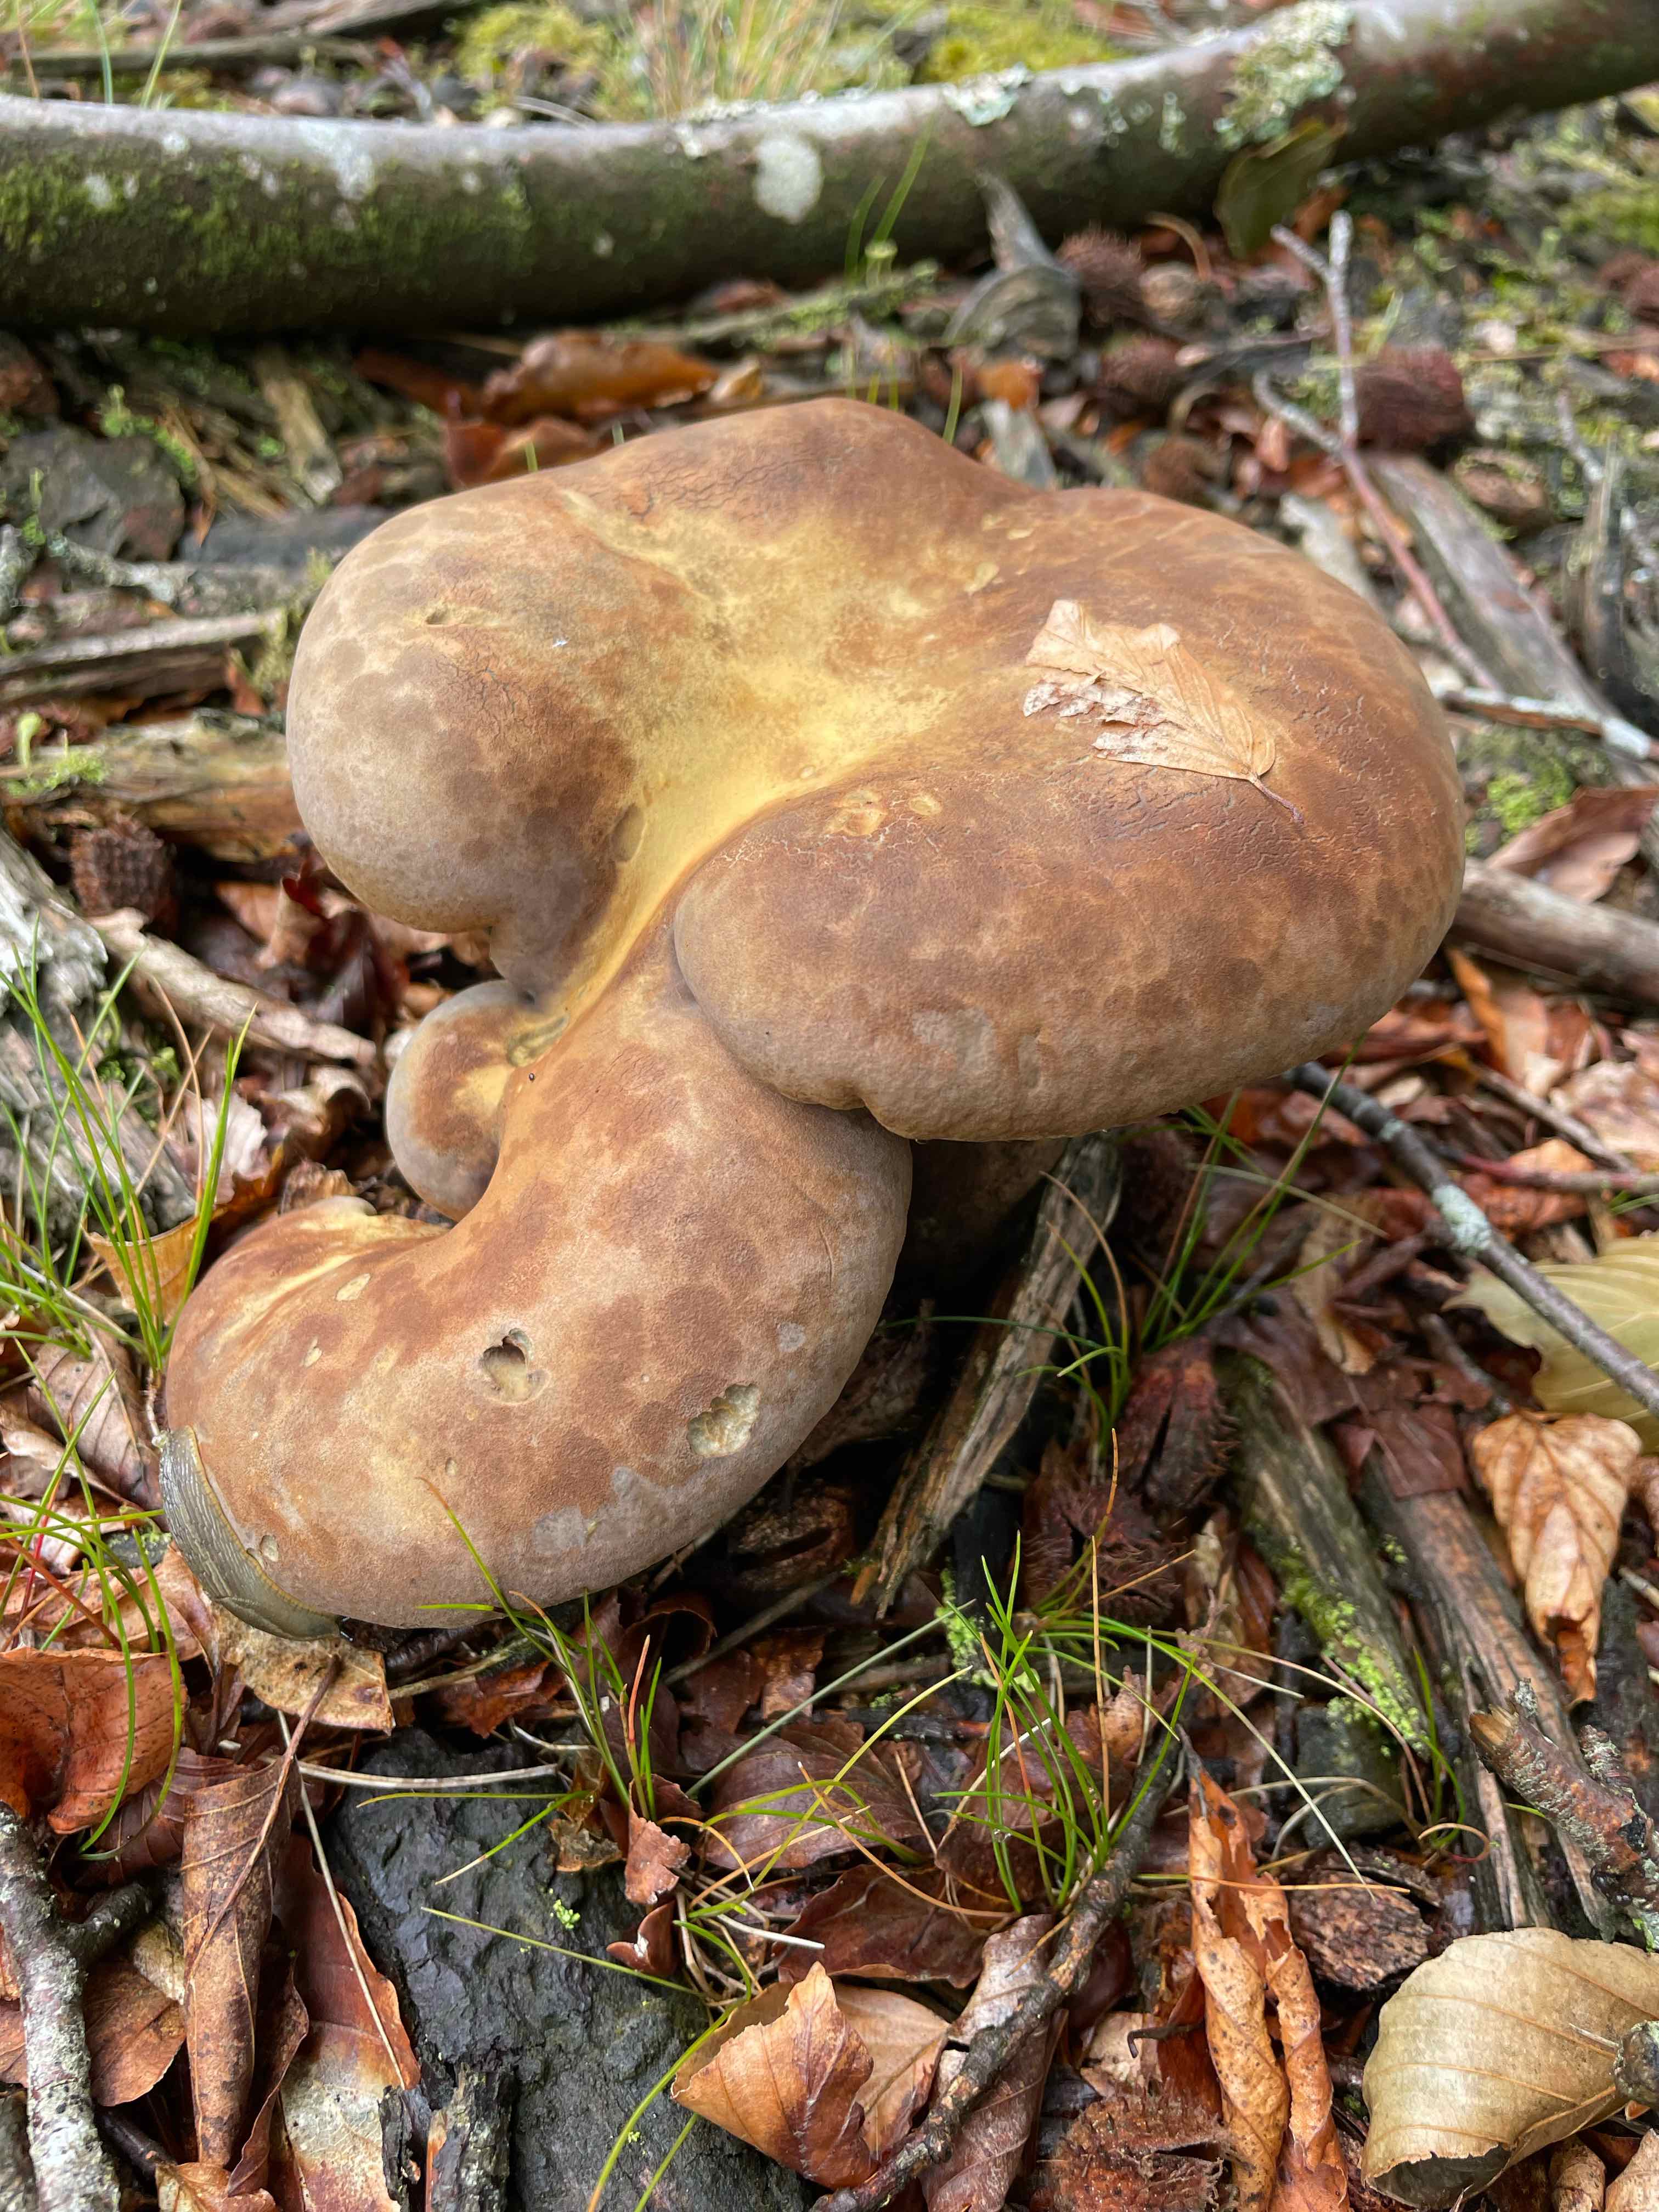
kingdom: Fungi
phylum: Basidiomycota
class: Agaricomycetes
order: Boletales
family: Tapinellaceae
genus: Tapinella
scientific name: Tapinella atrotomentosa
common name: sortfiltet viftesvamp
